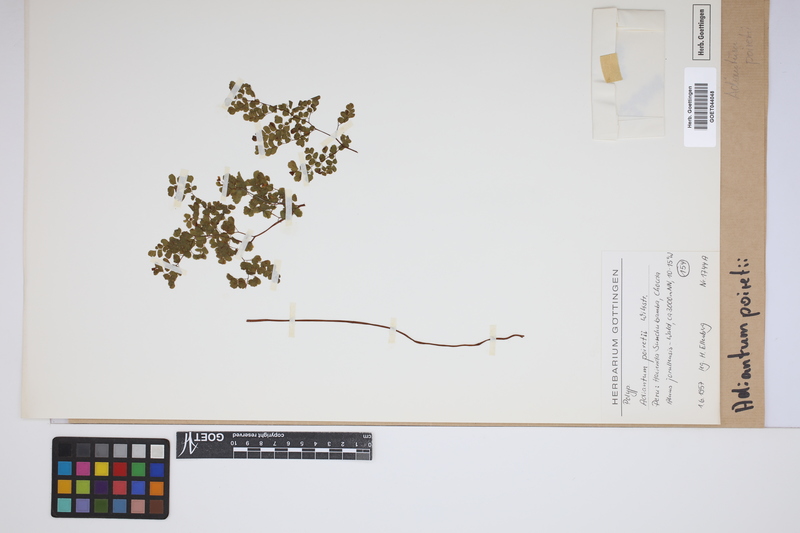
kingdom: Plantae
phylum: Tracheophyta
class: Polypodiopsida
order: Polypodiales
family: Pteridaceae
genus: Adiantum
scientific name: Adiantum poiretii
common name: Mexican maidenhair
